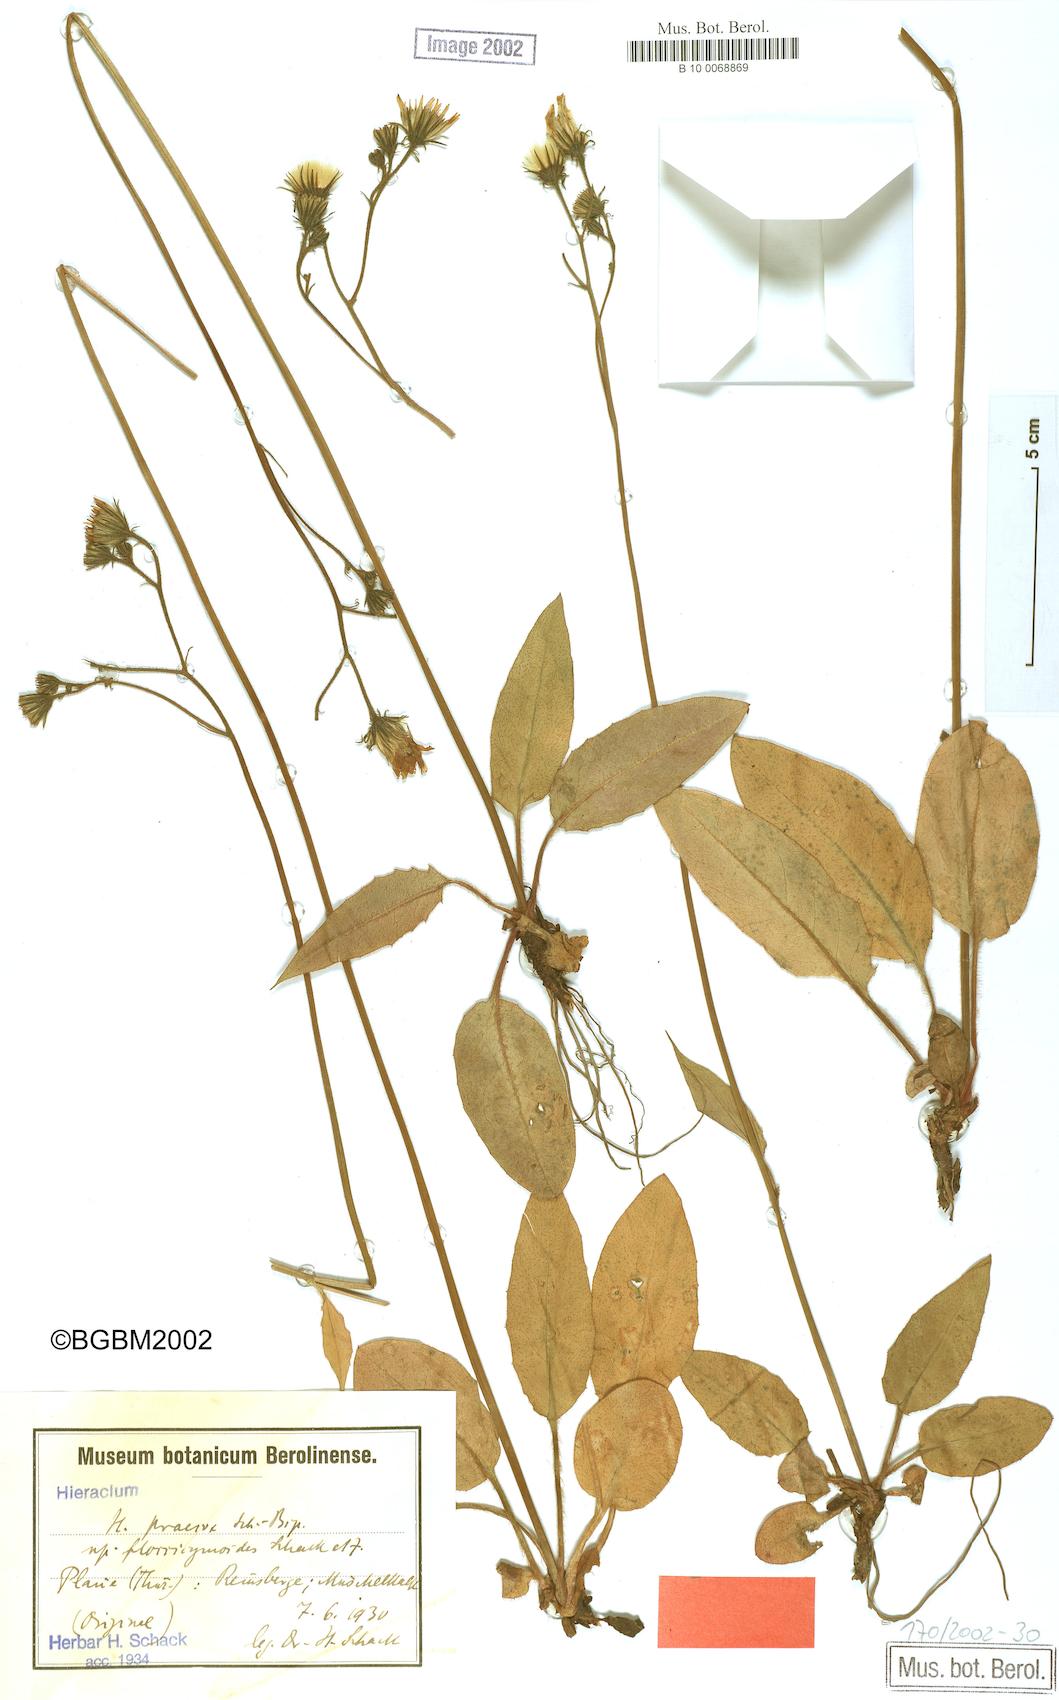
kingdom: Plantae
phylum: Tracheophyta
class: Magnoliopsida
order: Asterales
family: Asteraceae
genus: Hieracium
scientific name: Hieracium glaucinum
